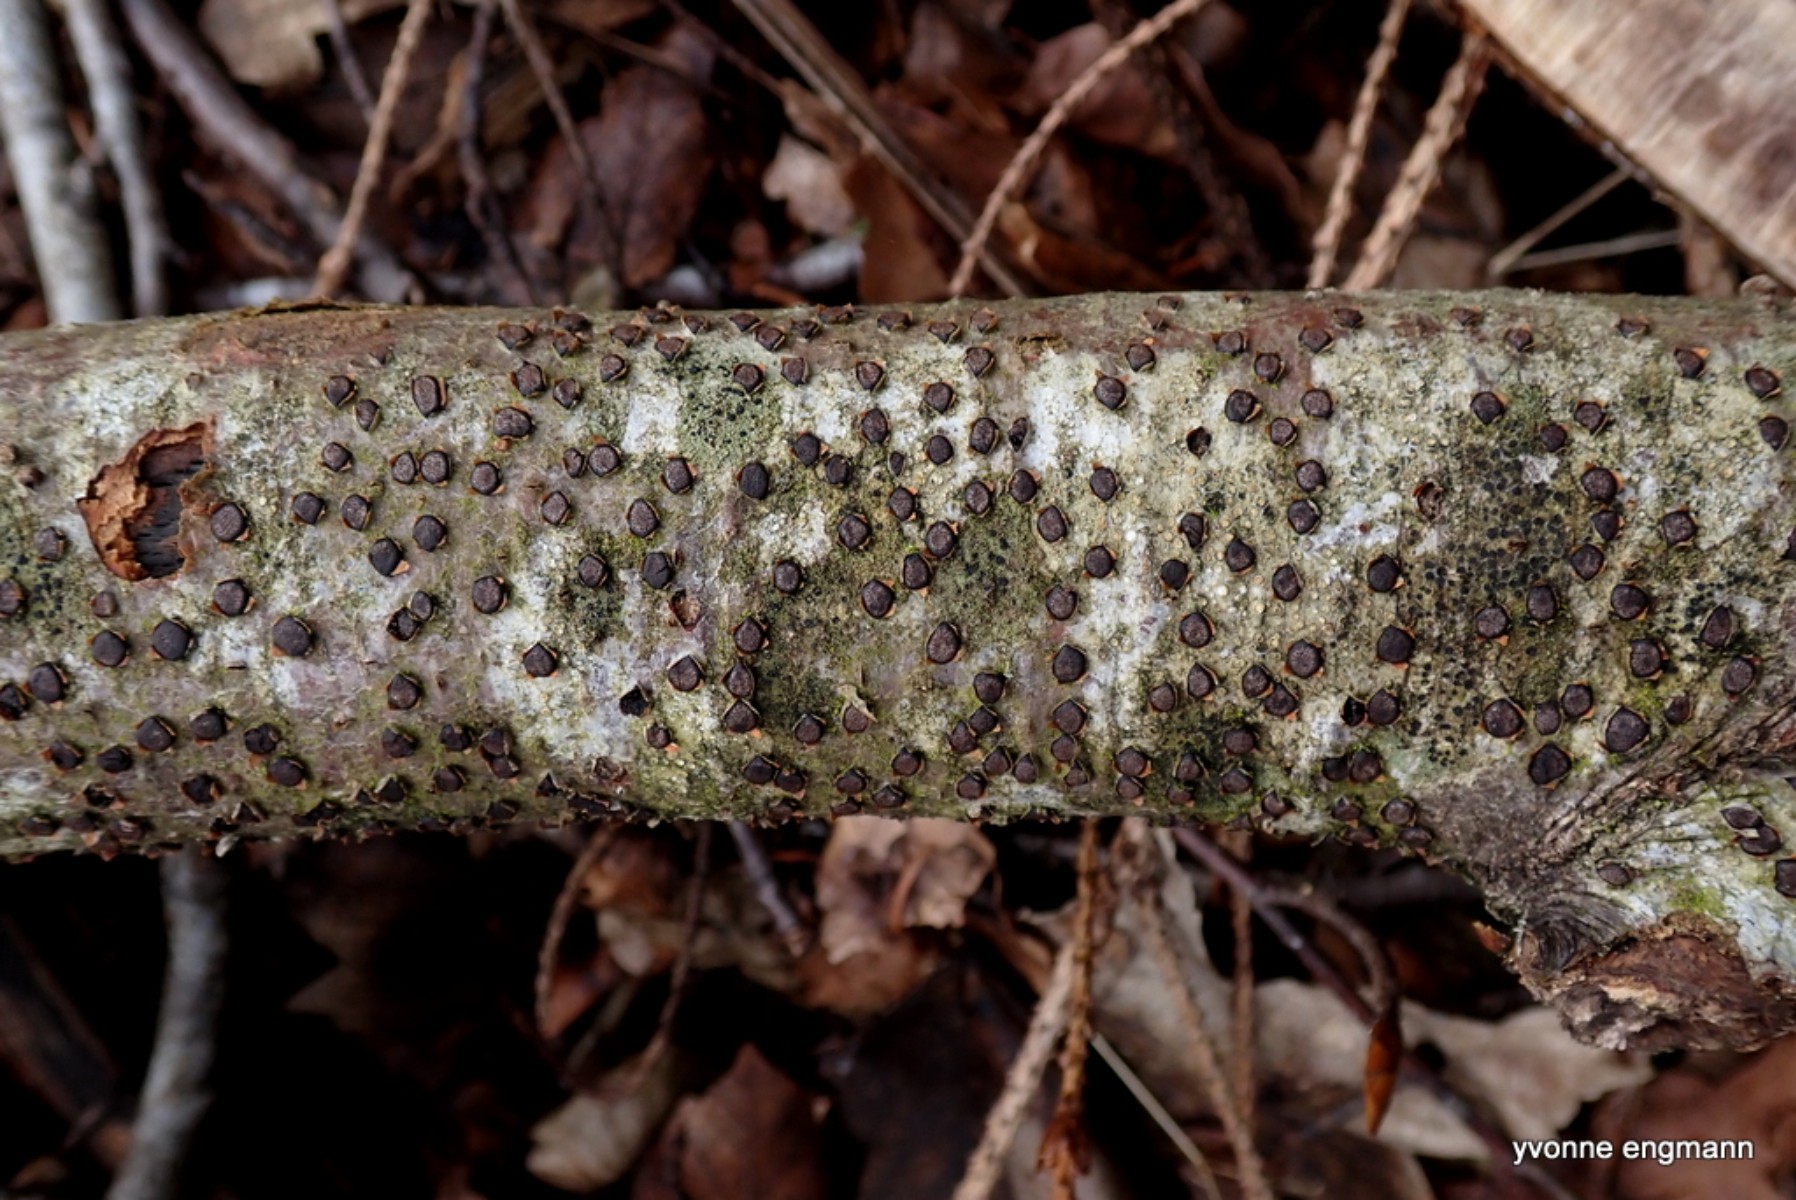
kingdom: Fungi
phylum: Ascomycota
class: Sordariomycetes
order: Xylariales
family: Diatrypaceae
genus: Diatrype
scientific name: Diatrype disciformis
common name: kant-kulskorpe
